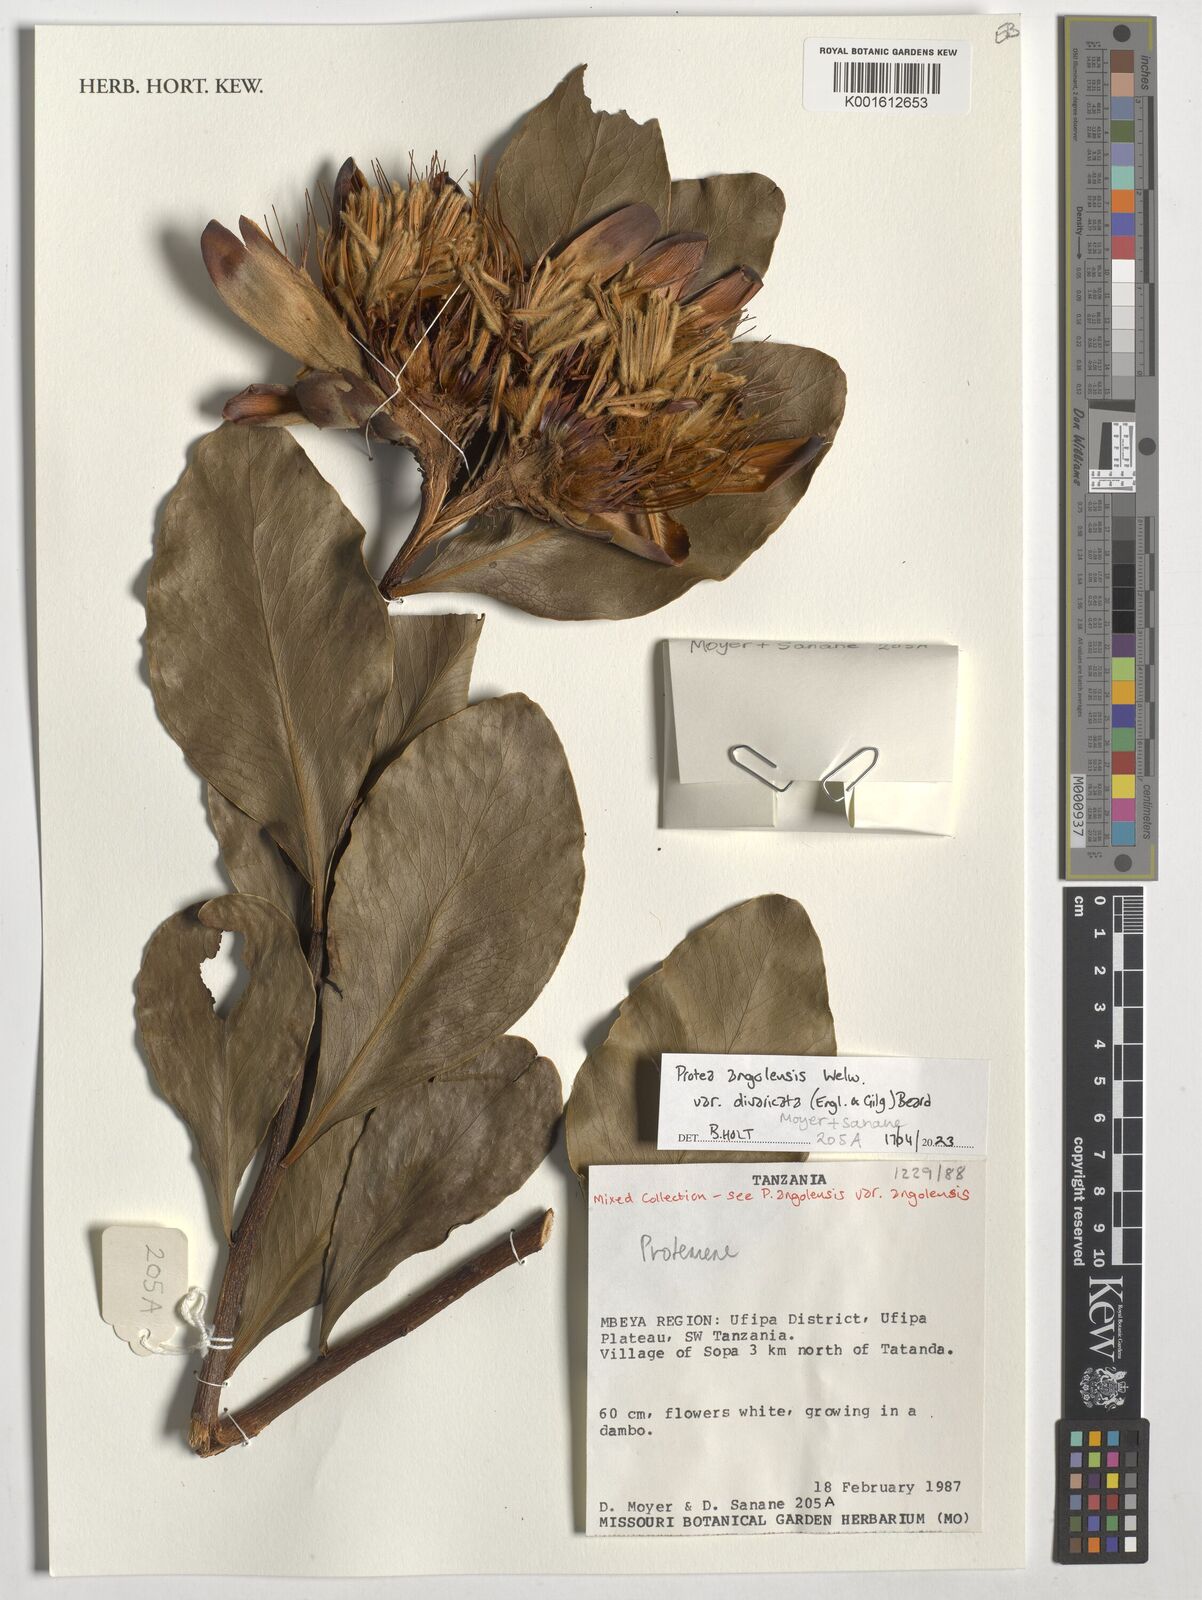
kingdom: Plantae
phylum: Tracheophyta
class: Magnoliopsida
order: Proteales
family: Proteaceae
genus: Protea
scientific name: Protea angolensis
